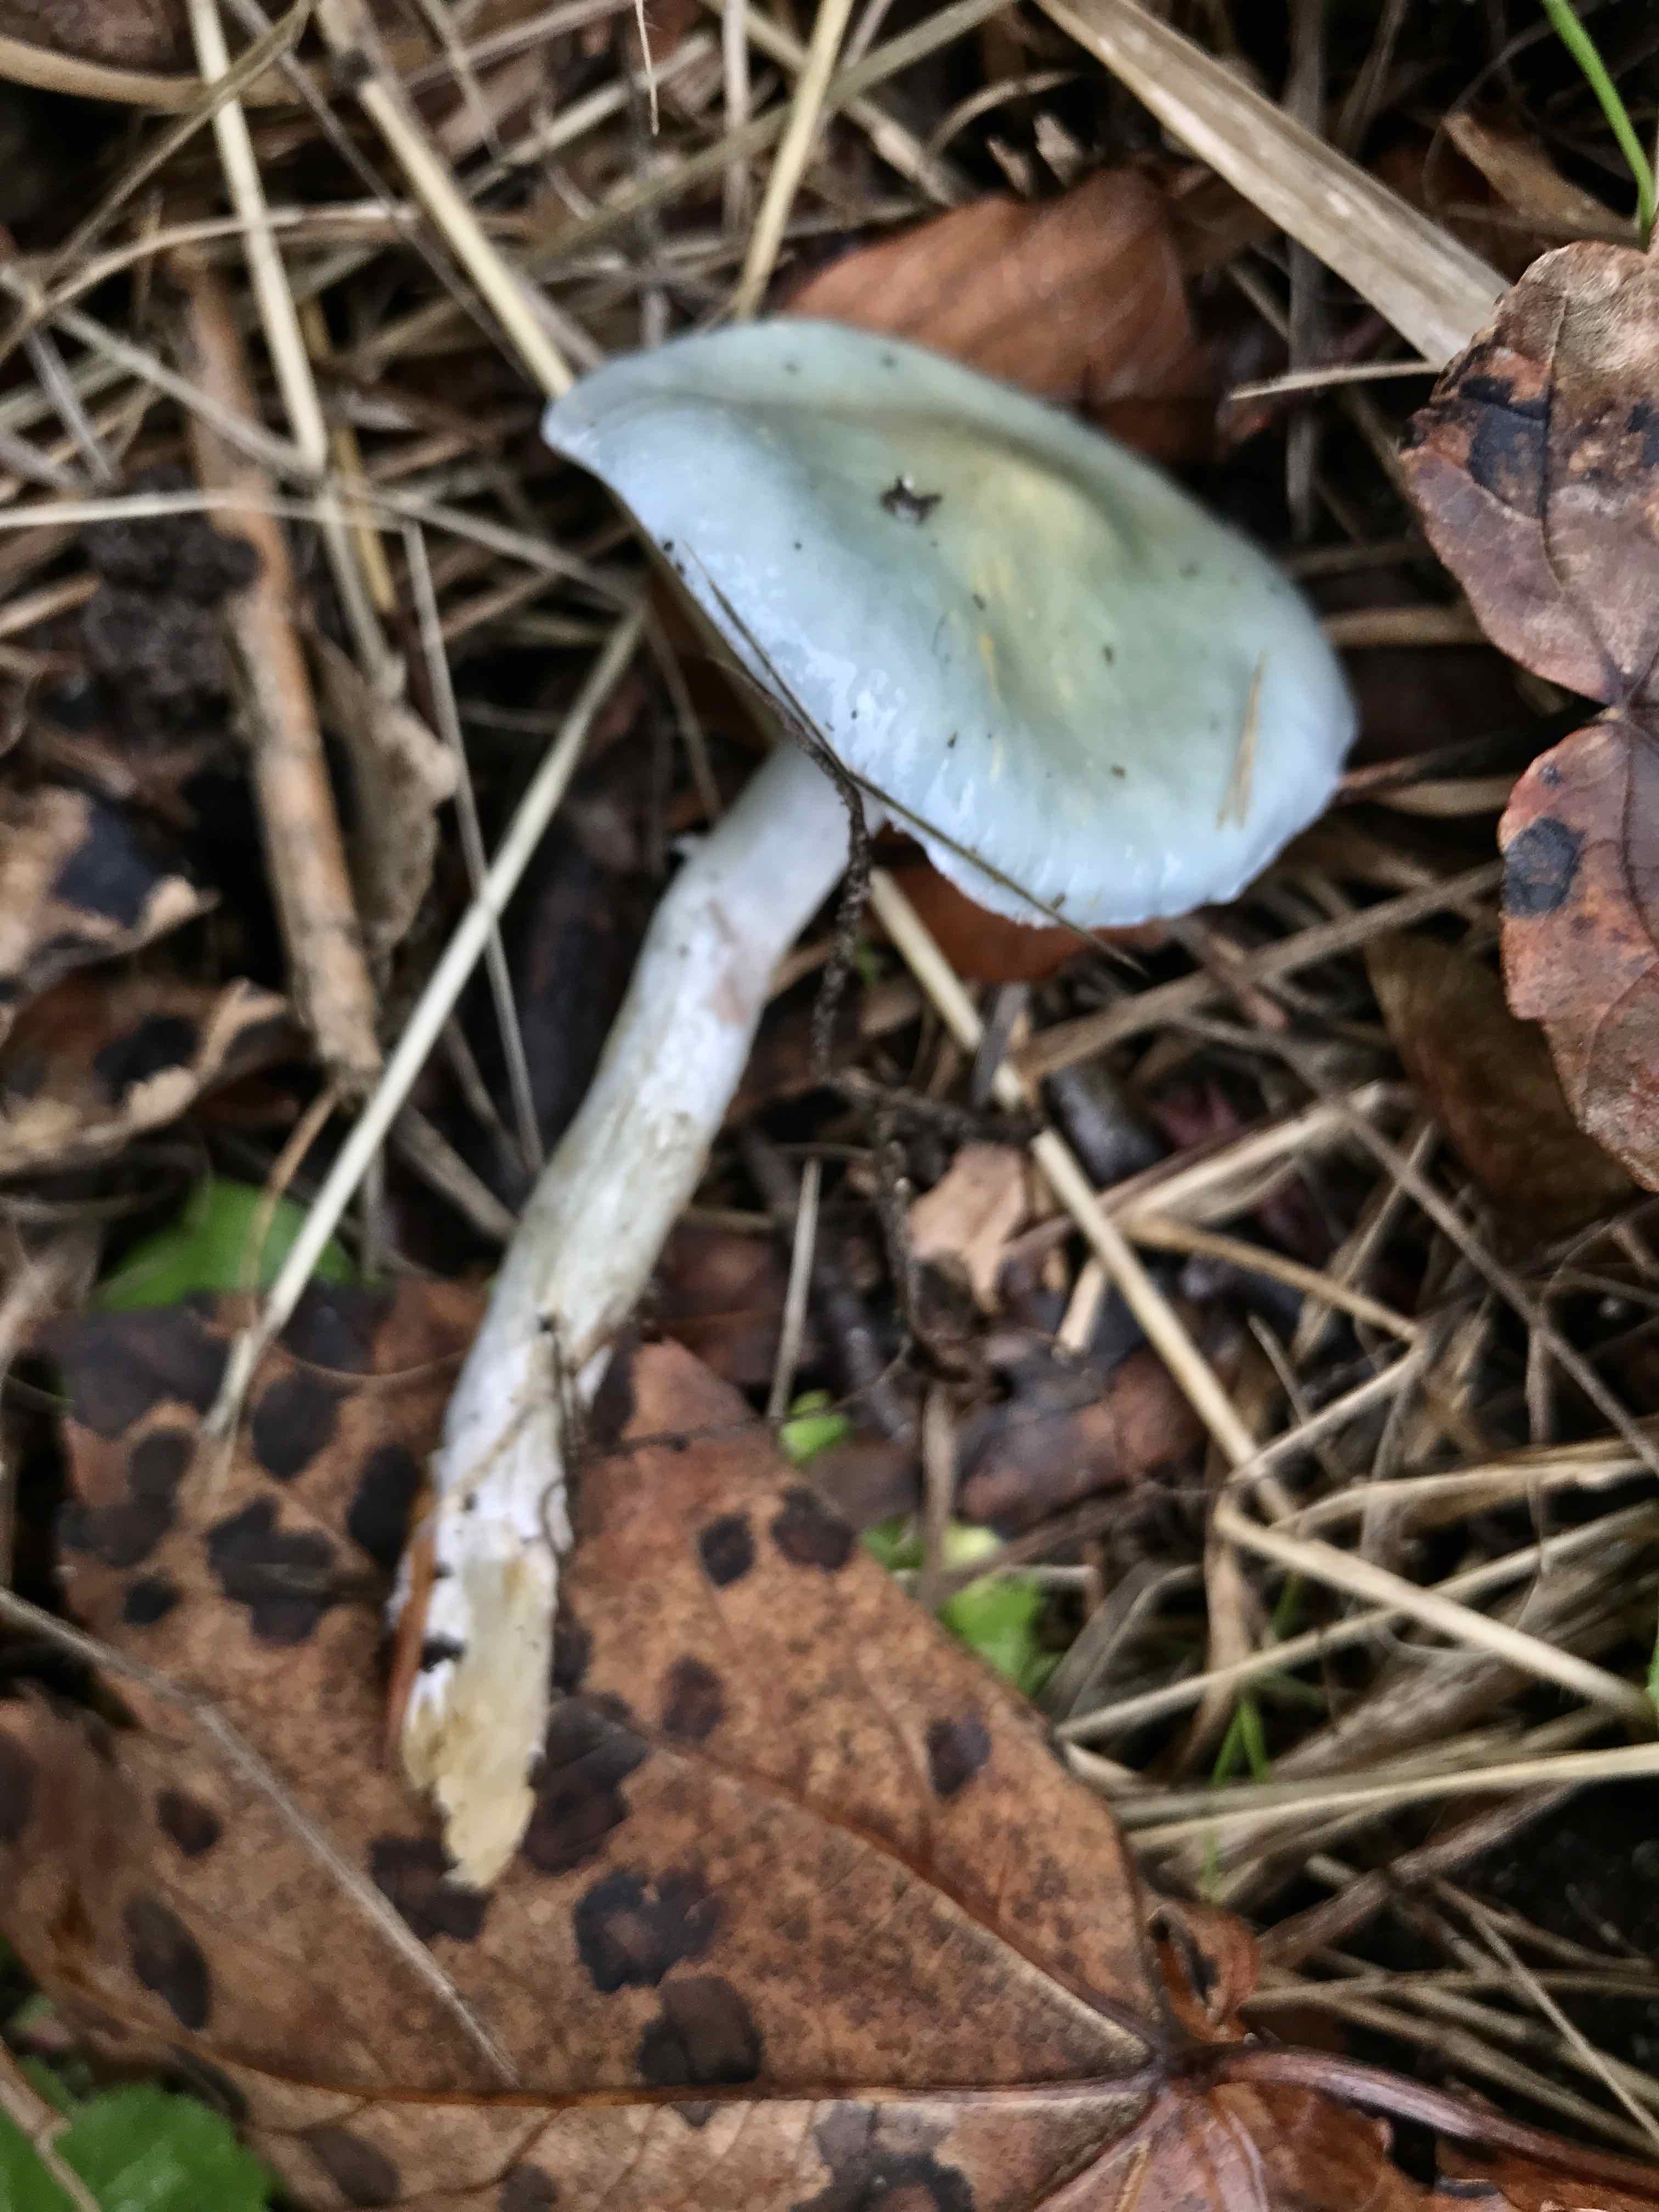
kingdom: Fungi
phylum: Basidiomycota
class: Agaricomycetes
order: Agaricales
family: Strophariaceae
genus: Stropharia
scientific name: Stropharia cyanea
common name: blågrøn bredblad
